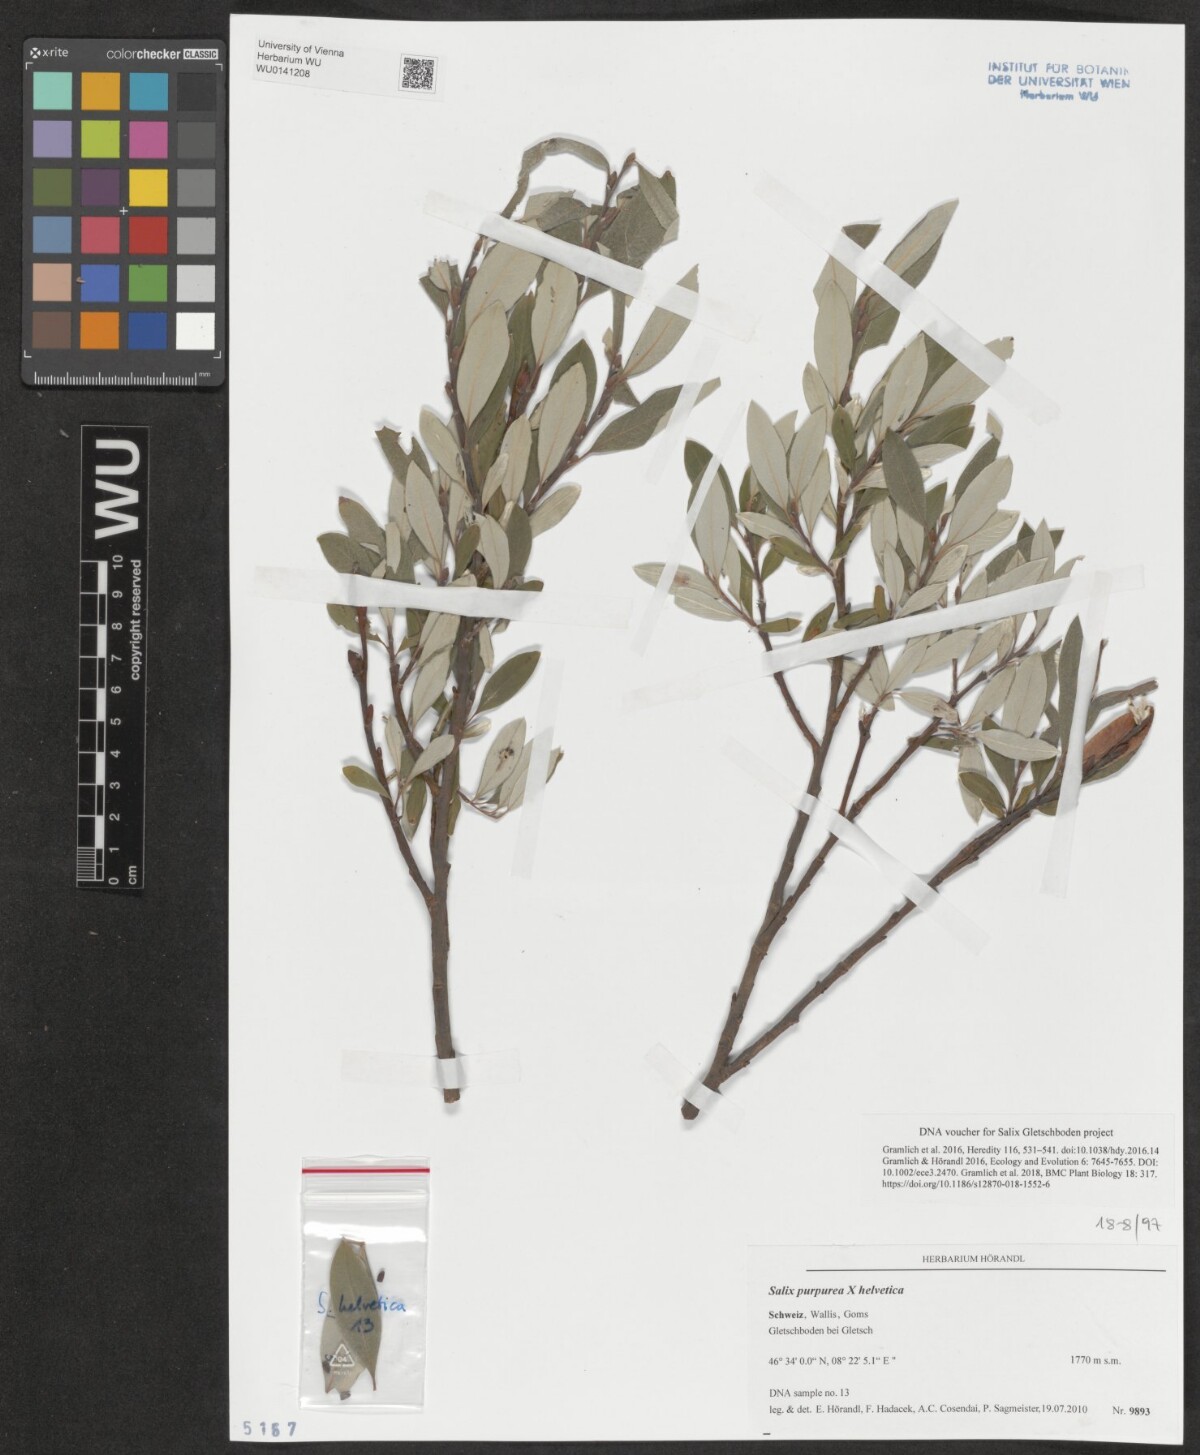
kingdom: Plantae
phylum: Tracheophyta
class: Magnoliopsida
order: Malpighiales
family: Salicaceae
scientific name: Salicaceae
